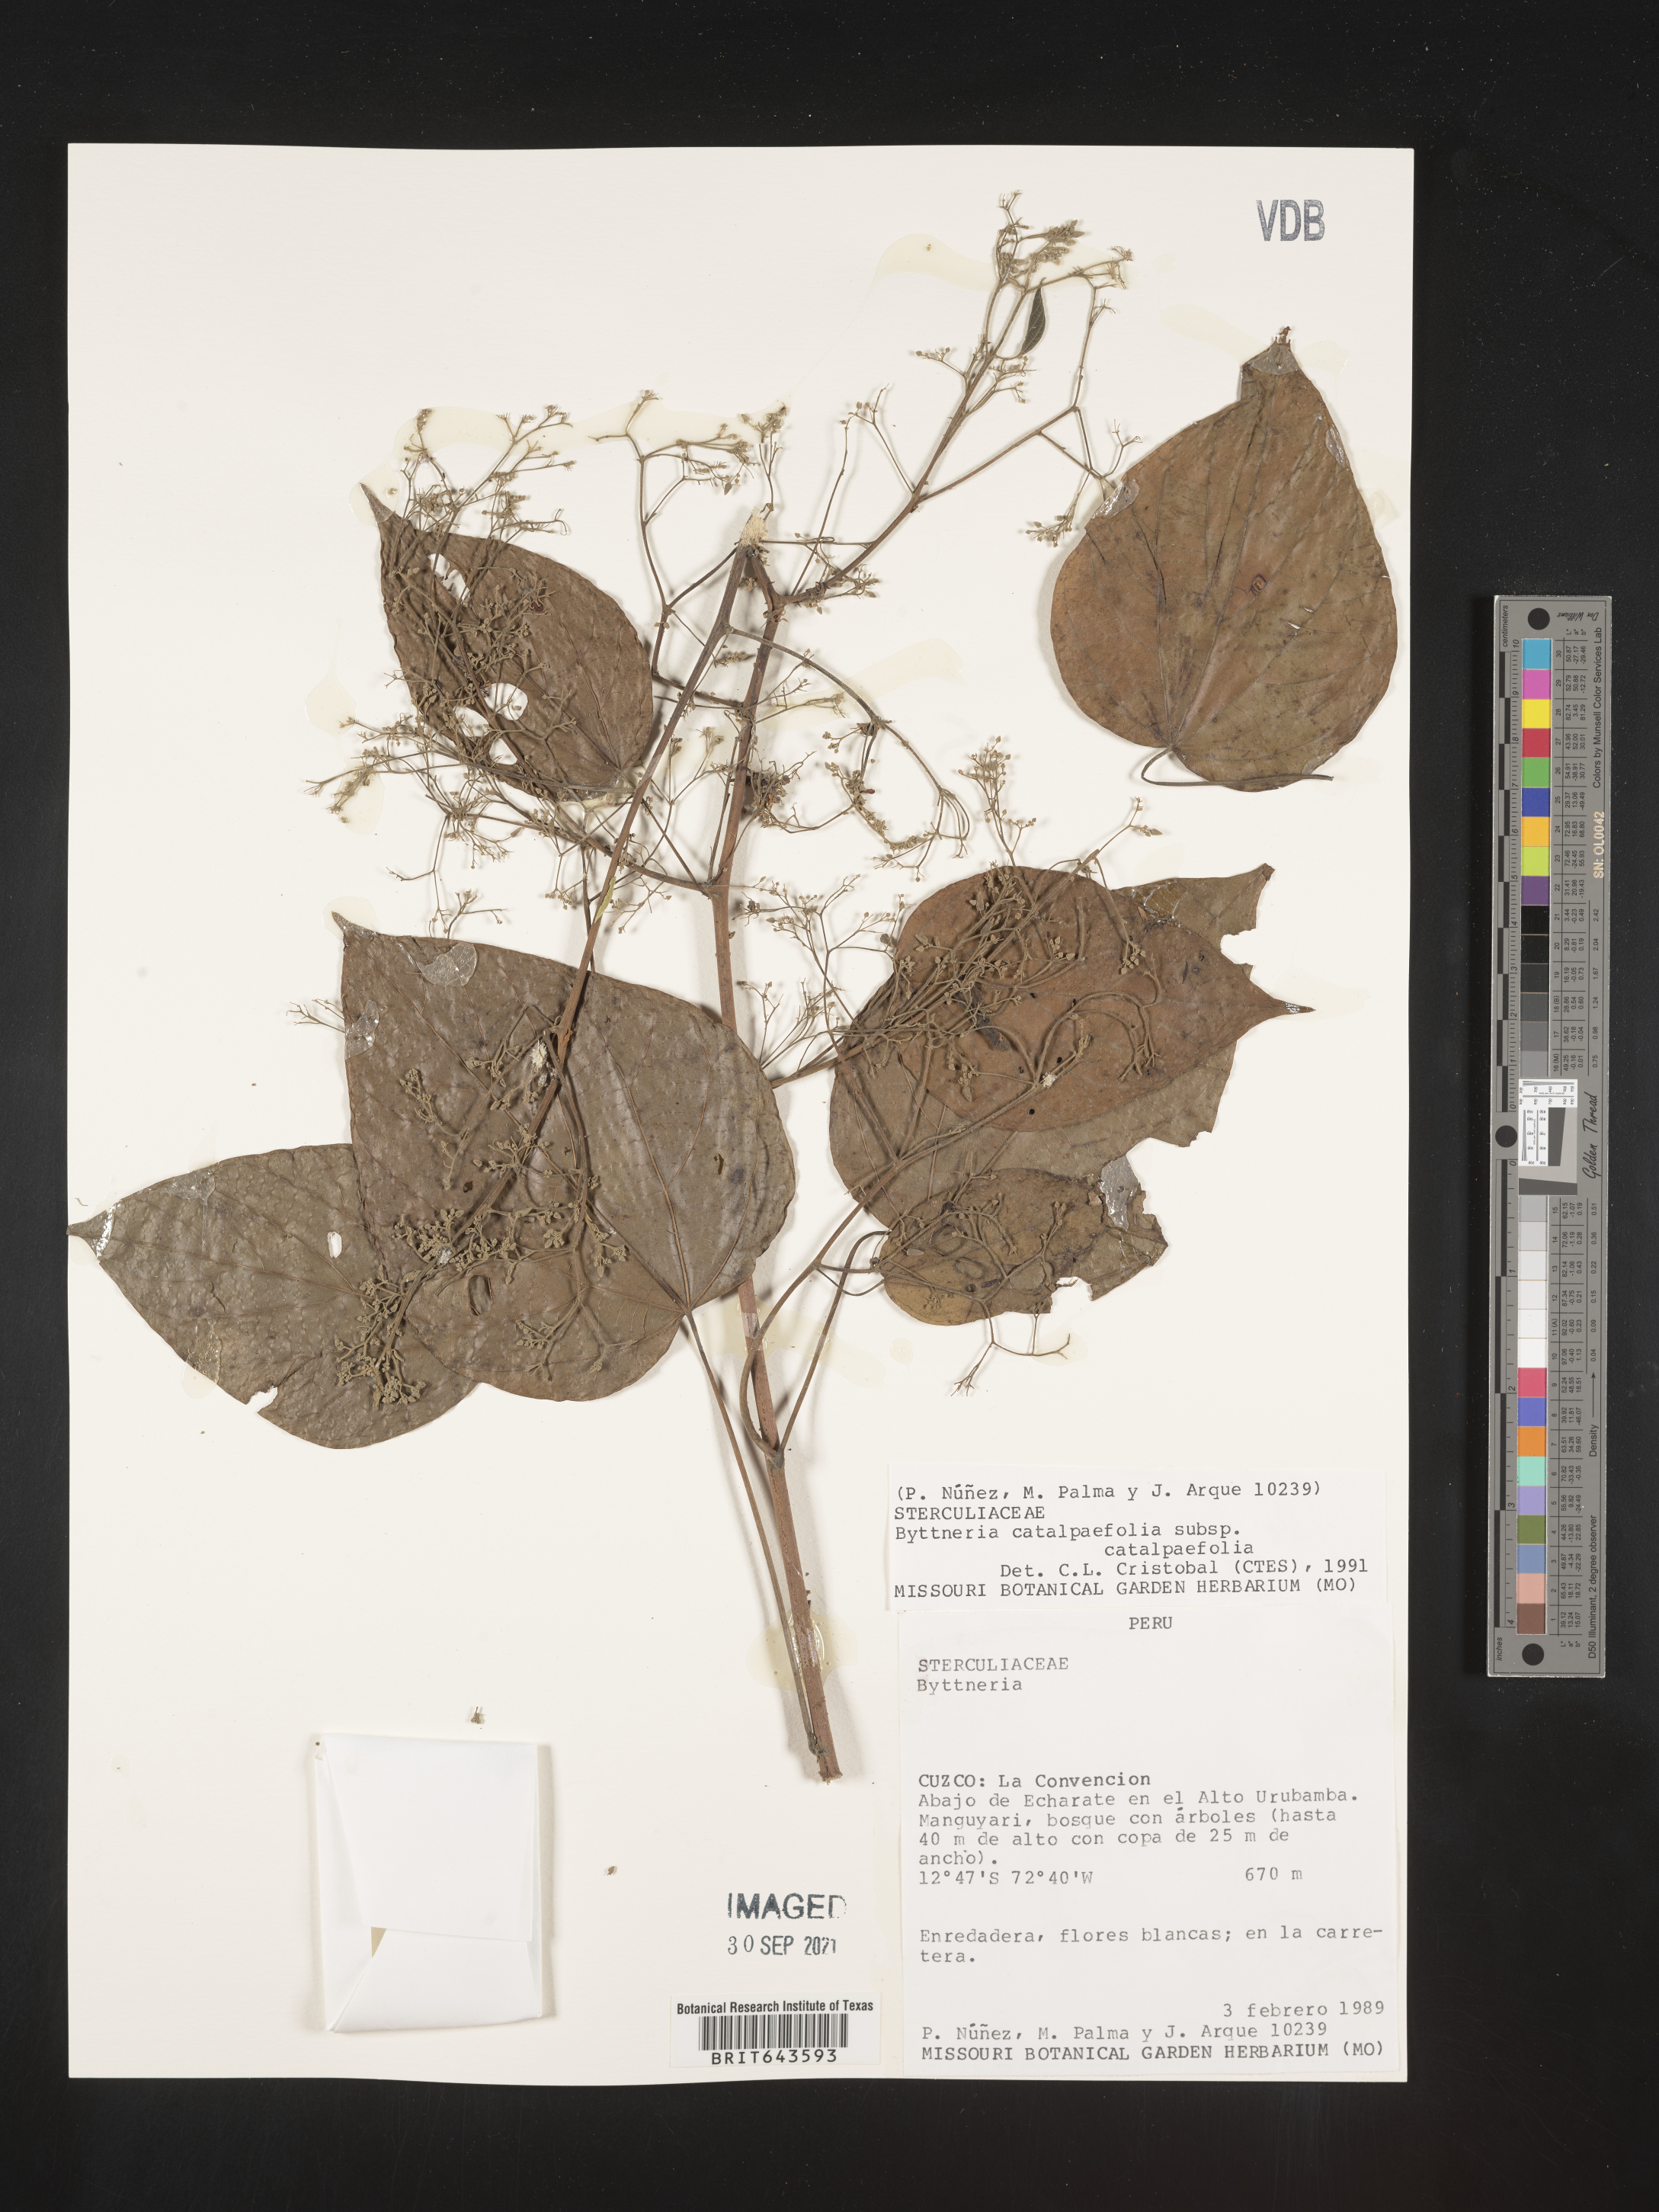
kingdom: Plantae
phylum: Tracheophyta
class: Magnoliopsida
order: Malvales
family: Malvaceae
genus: Byttneria
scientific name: Byttneria
